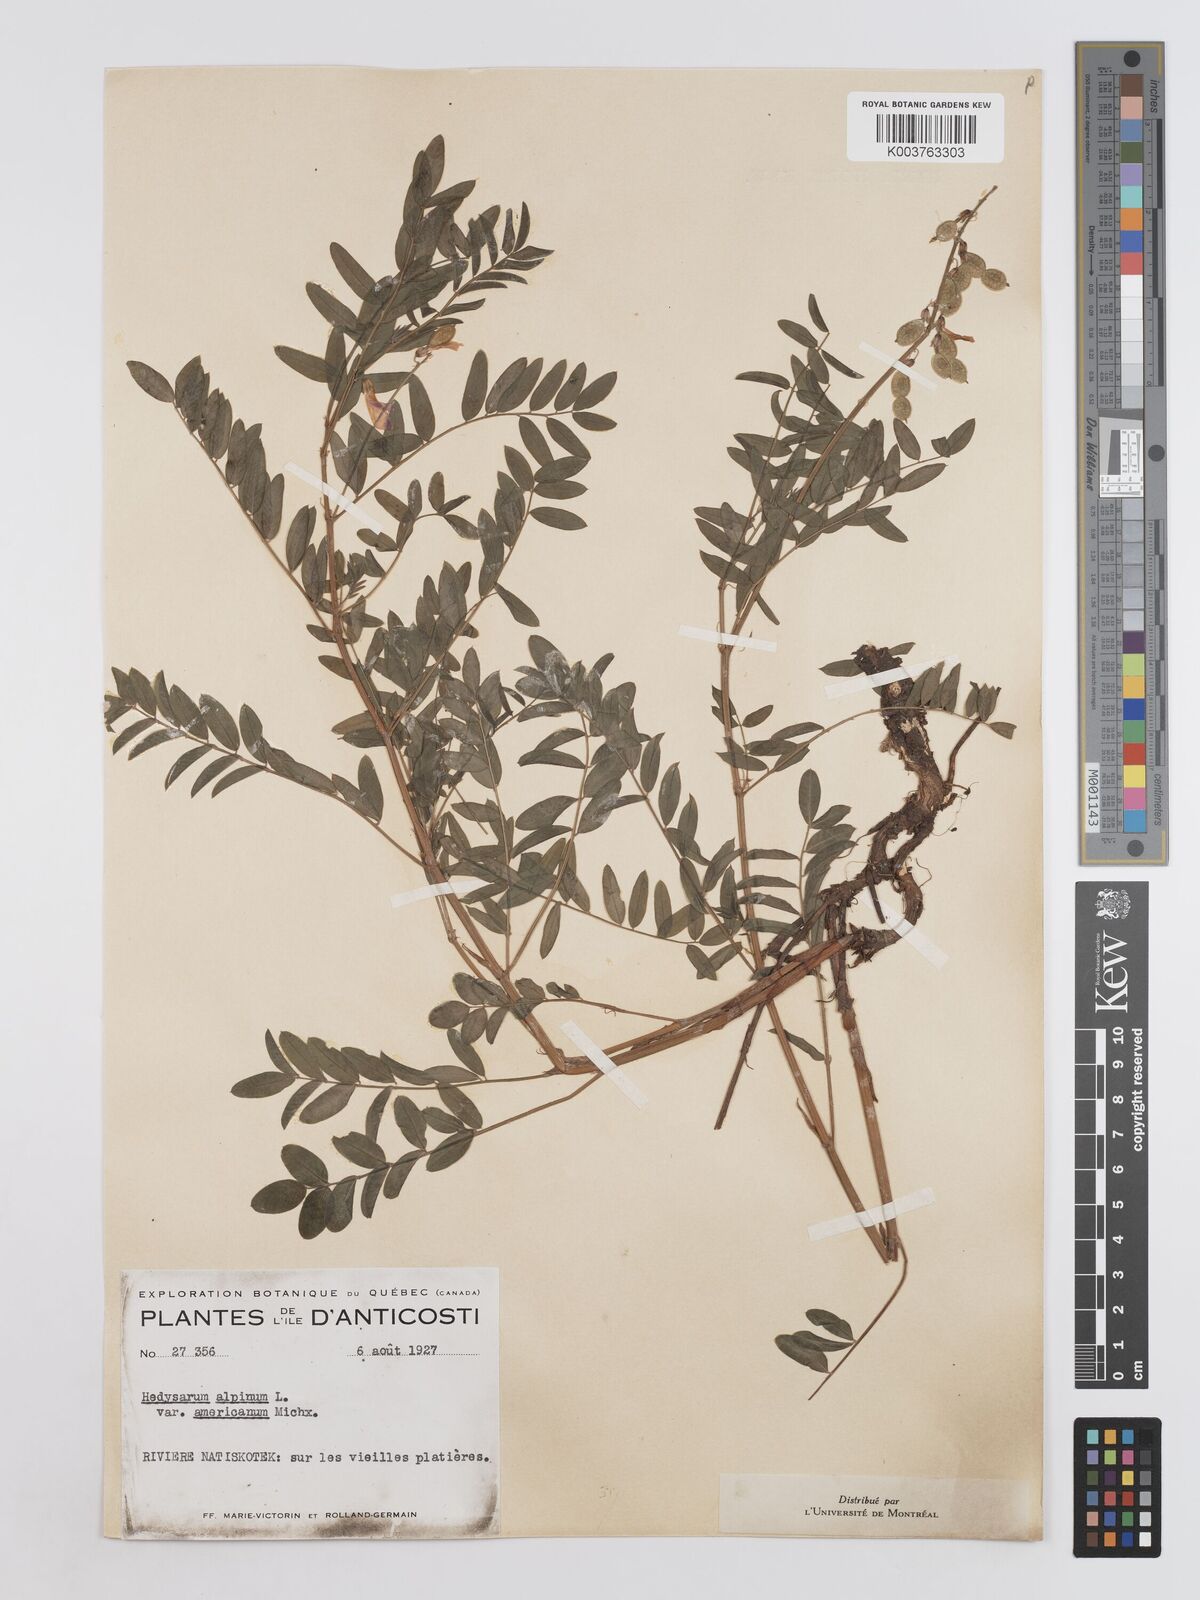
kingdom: Plantae
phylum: Tracheophyta
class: Magnoliopsida
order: Fabales
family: Fabaceae
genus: Hedysarum
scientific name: Hedysarum alpinum
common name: Alpine sweet-vetch
